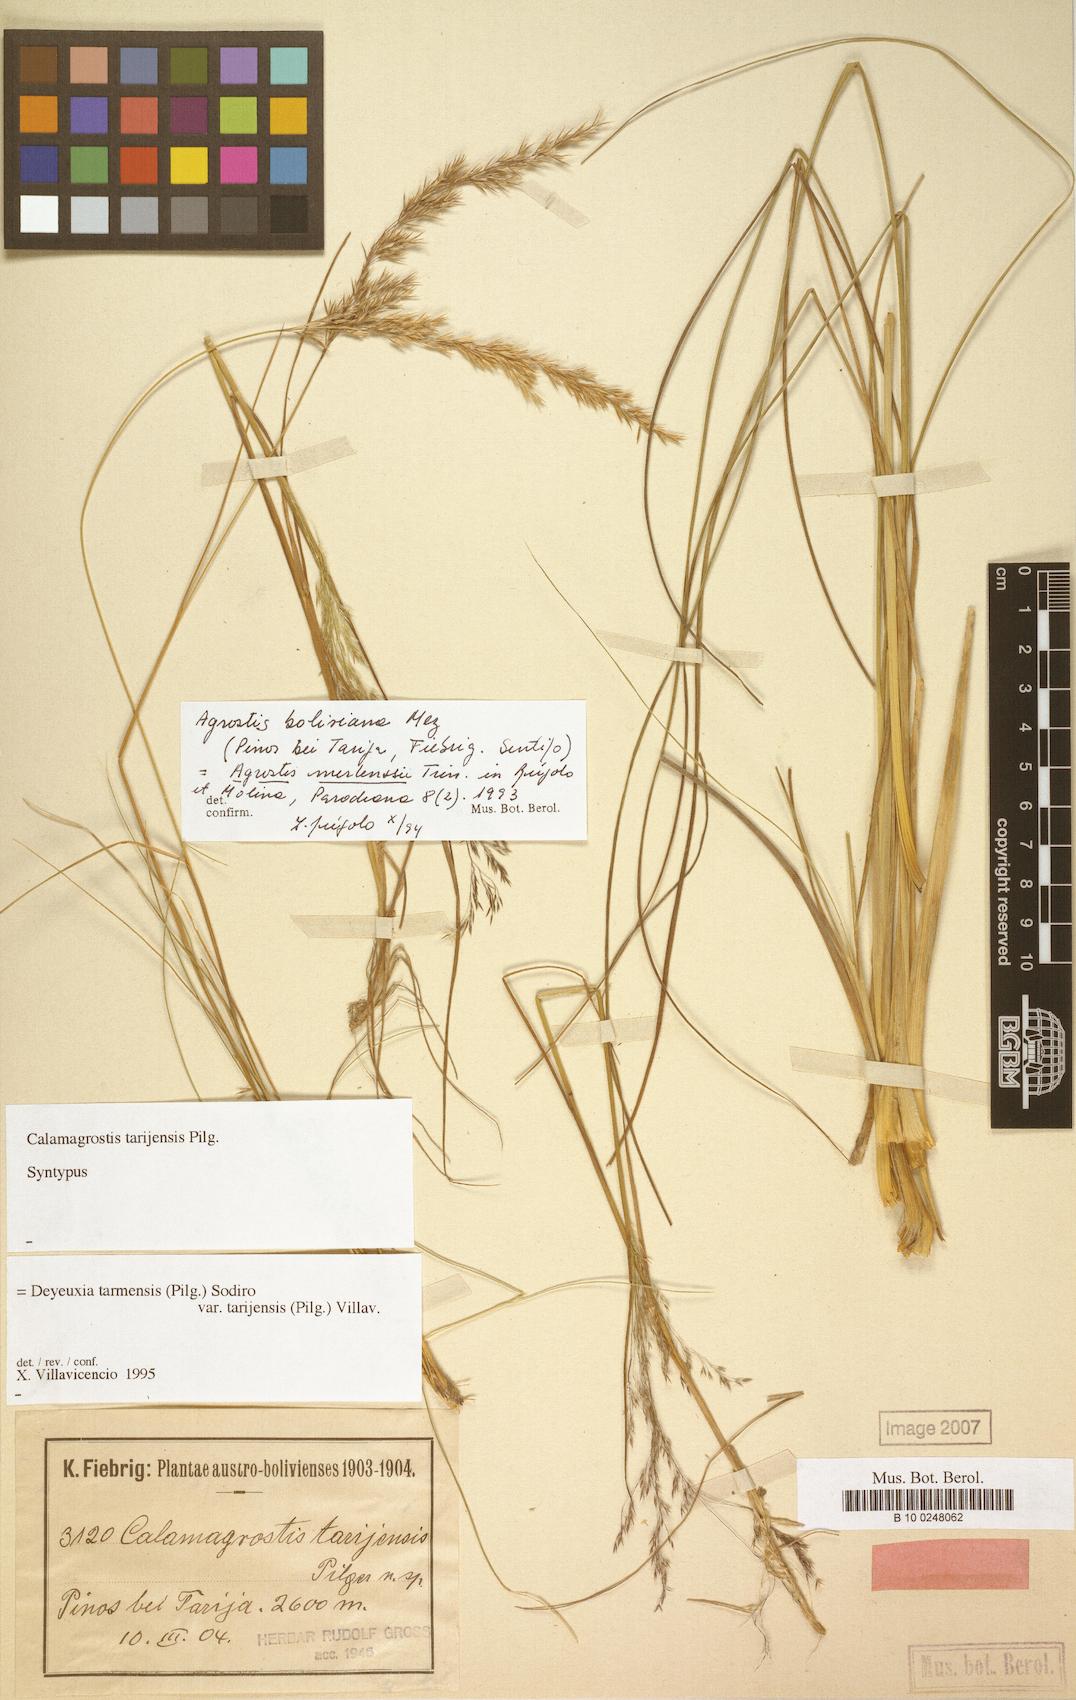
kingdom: Plantae
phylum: Tracheophyta
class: Liliopsida
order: Poales
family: Poaceae
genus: Cinnagrostis
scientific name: Cinnagrostis tarmensis
